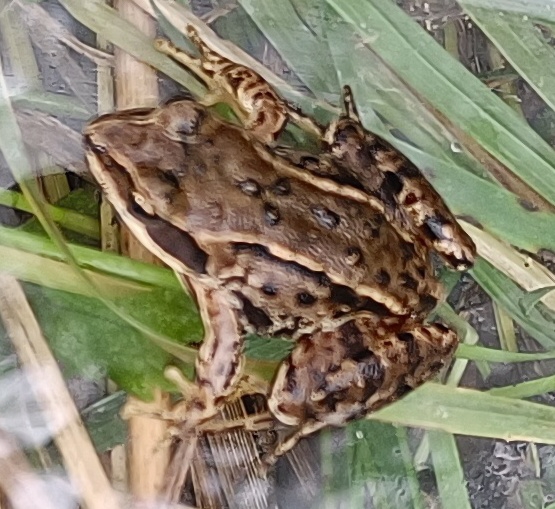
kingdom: Animalia
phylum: Chordata
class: Amphibia
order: Anura
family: Ranidae
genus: Rana
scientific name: Rana arvalis
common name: Spidssnudet frø
